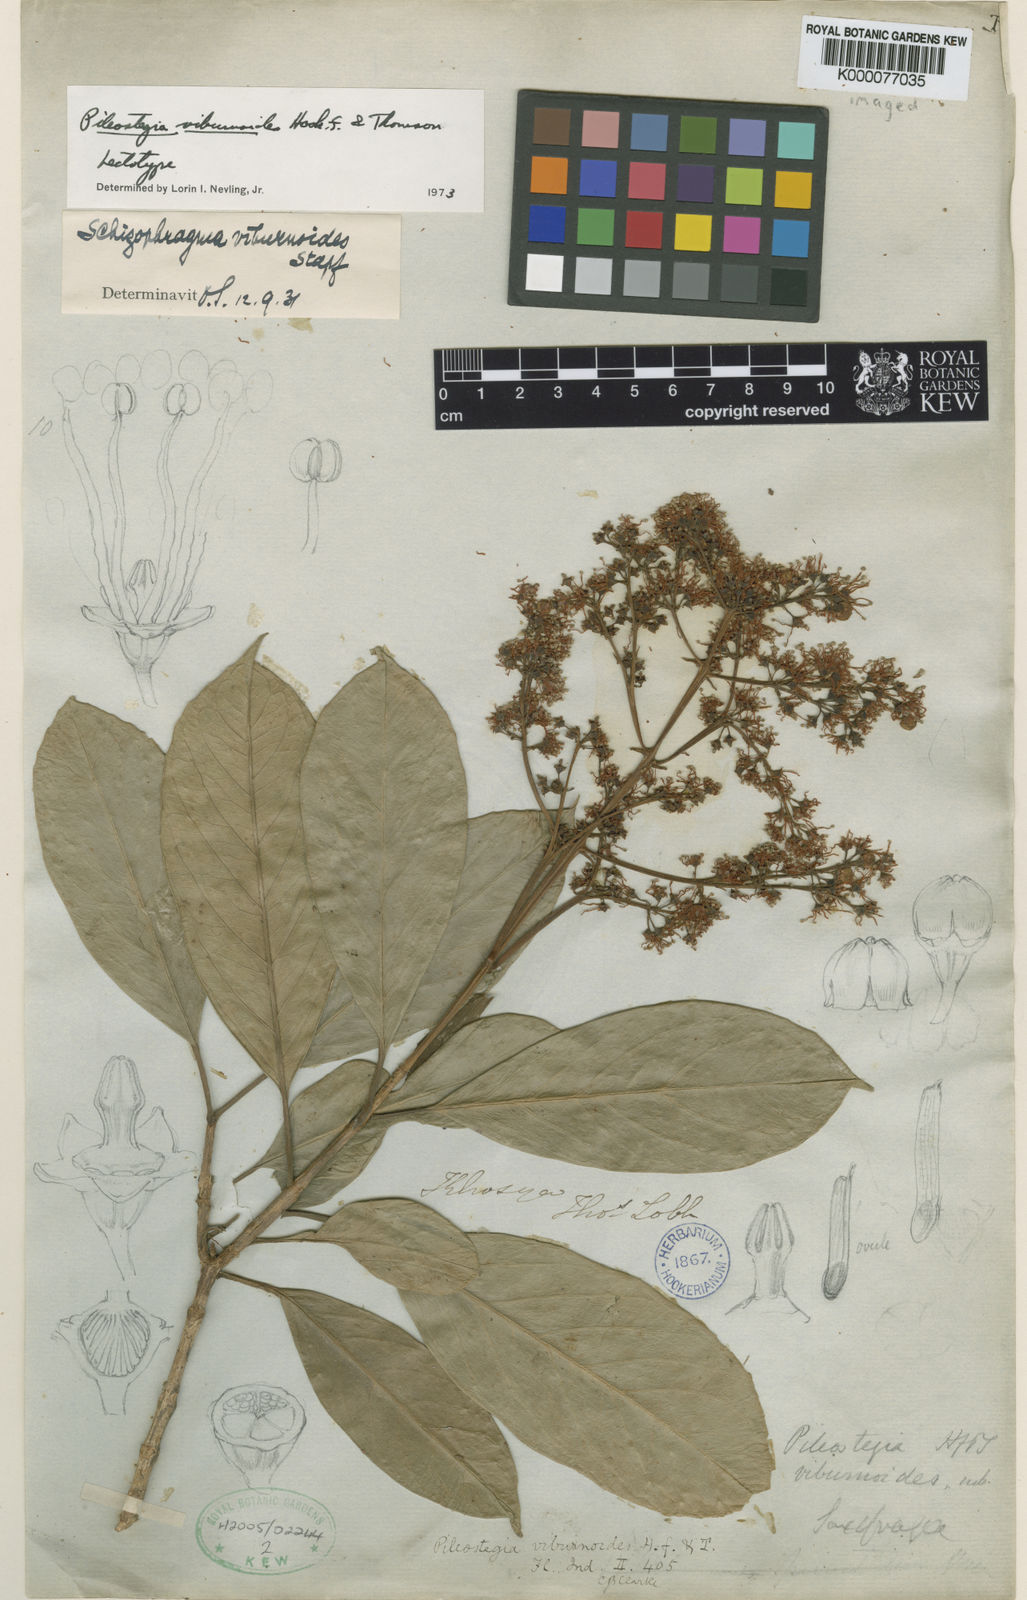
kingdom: Plantae
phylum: Tracheophyta
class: Magnoliopsida
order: Cornales
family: Hydrangeaceae
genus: Hydrangea
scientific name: Hydrangea viburnoides
